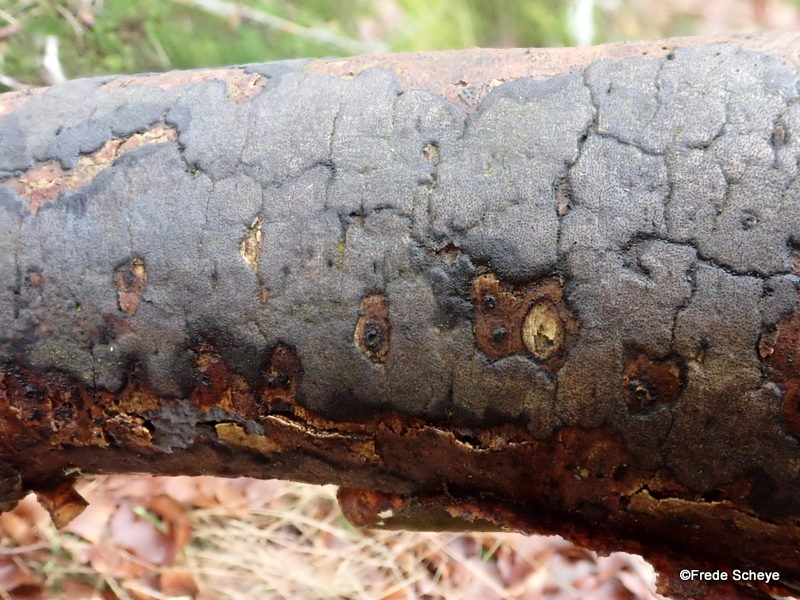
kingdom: Fungi
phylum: Ascomycota
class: Sordariomycetes
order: Xylariales
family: Diatrypaceae
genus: Diatrype
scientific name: Diatrype decorticata
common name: barksprænger-kulskorpe
